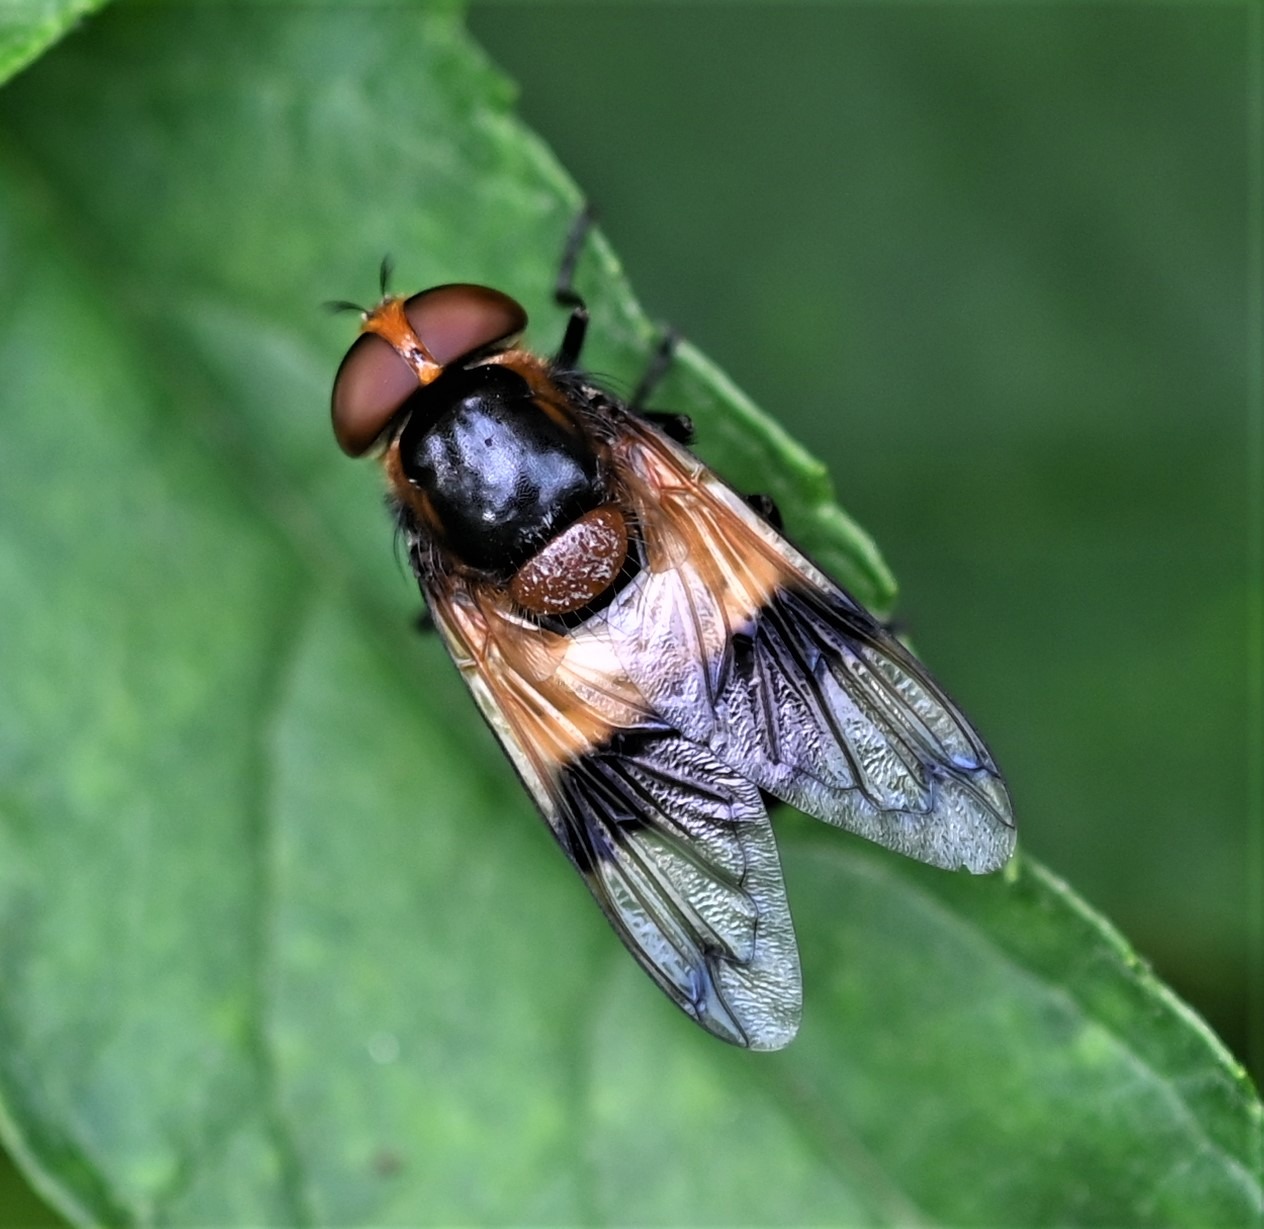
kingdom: Animalia
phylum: Arthropoda
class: Insecta
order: Diptera
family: Syrphidae
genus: Volucella
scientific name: Volucella pellucens
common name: Hvidbåndet humlesvirreflue
